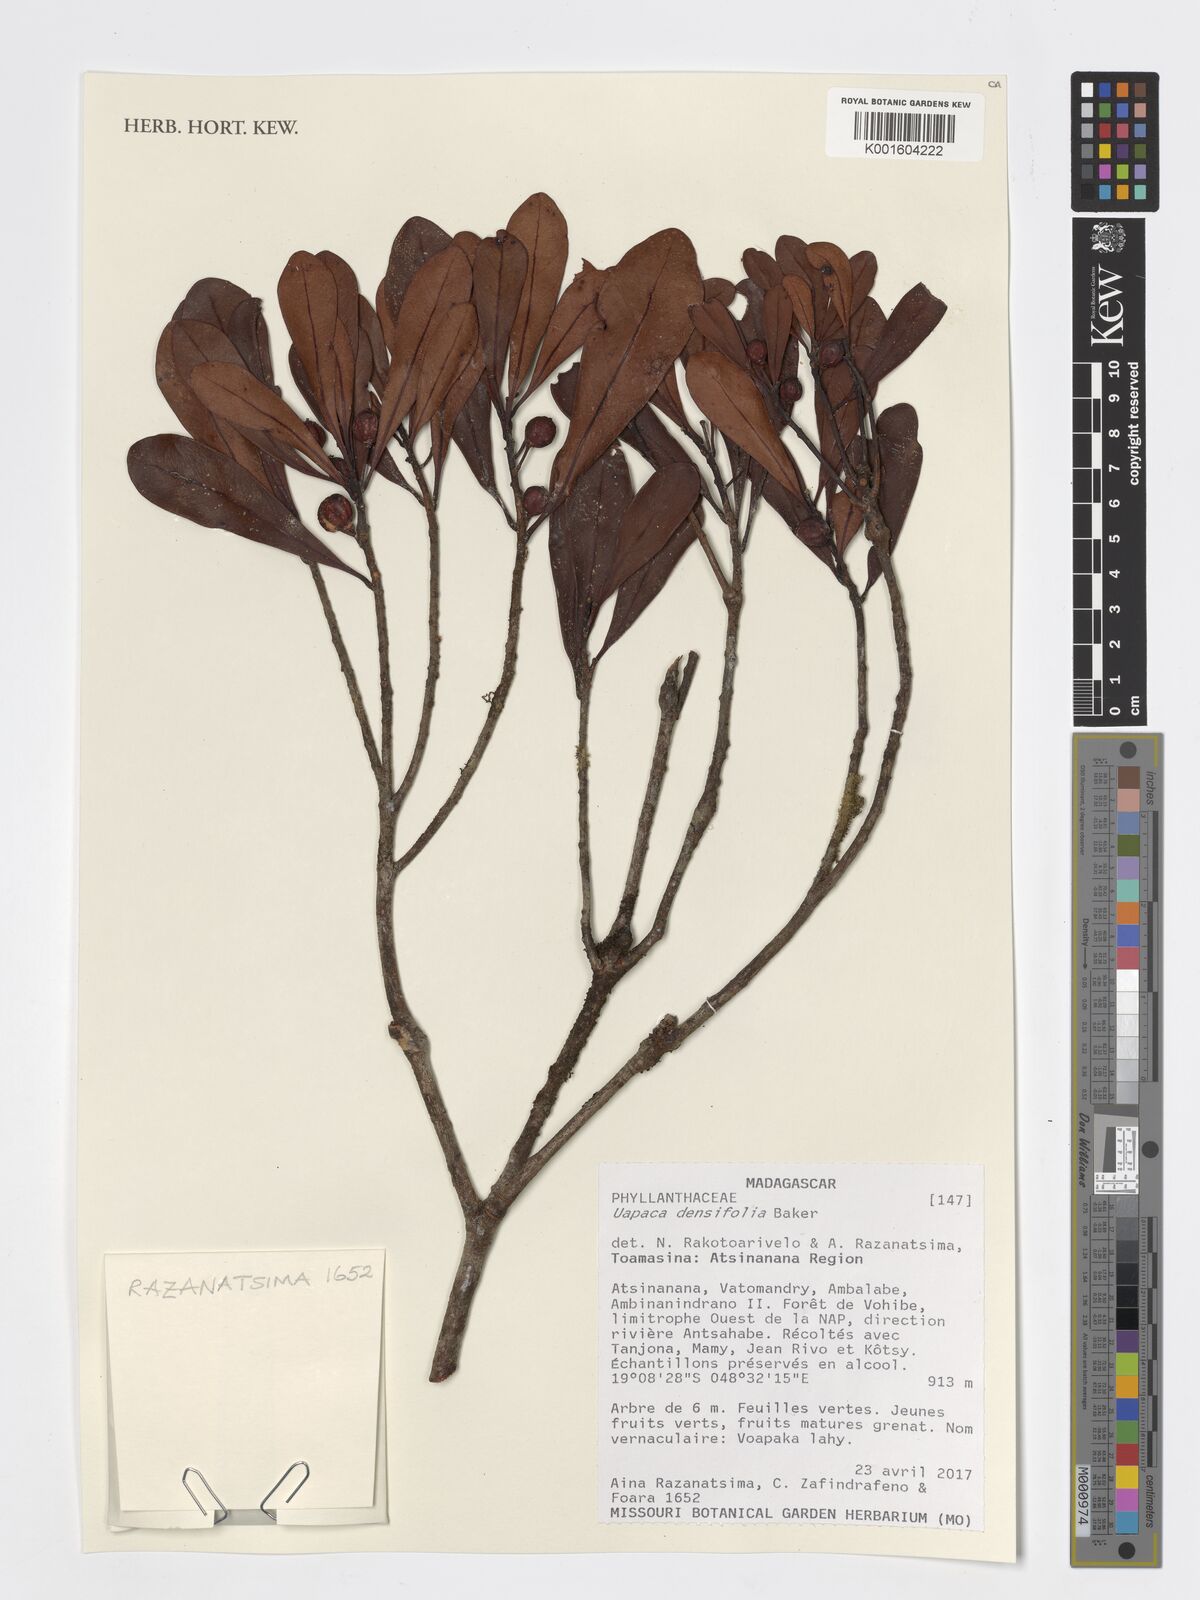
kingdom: Plantae
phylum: Tracheophyta
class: Magnoliopsida
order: Malpighiales
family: Phyllanthaceae
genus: Uapaca
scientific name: Uapaca densifolia
